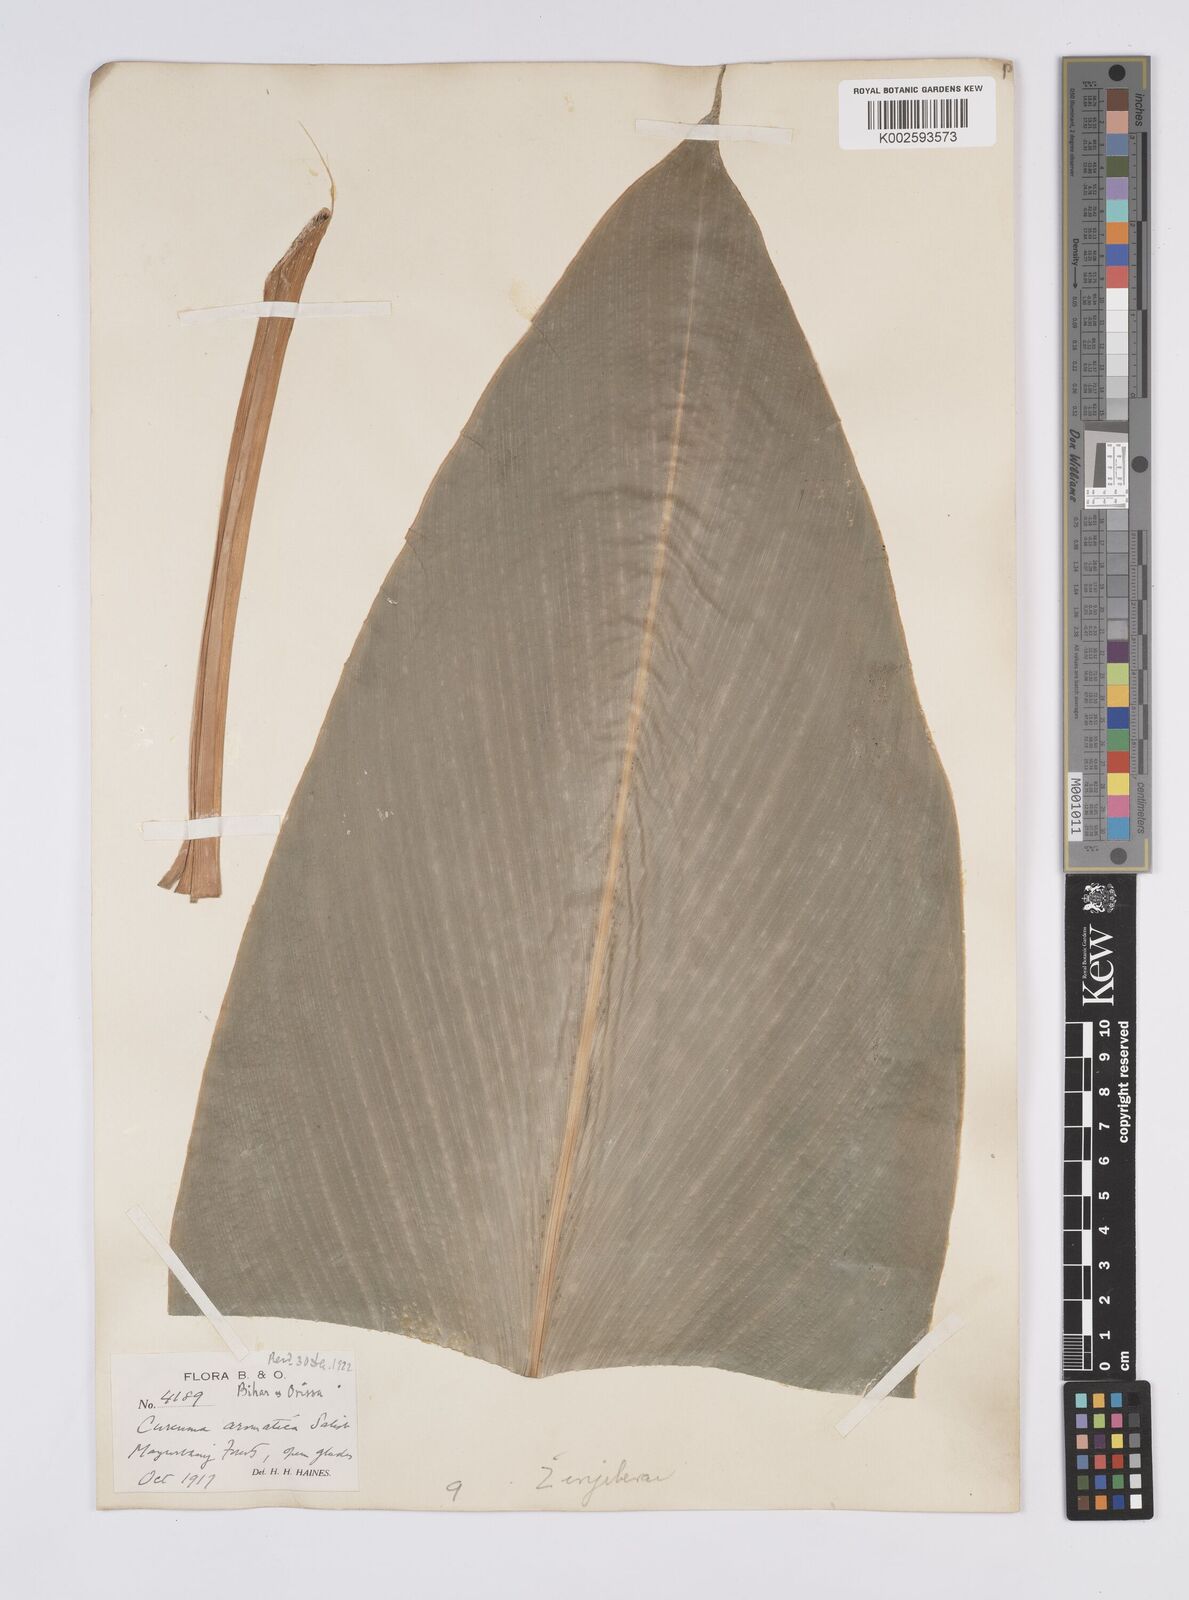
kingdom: Plantae
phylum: Tracheophyta
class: Liliopsida
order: Zingiberales
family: Zingiberaceae
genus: Curcuma
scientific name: Curcuma aromatica
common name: Wild turmeric
